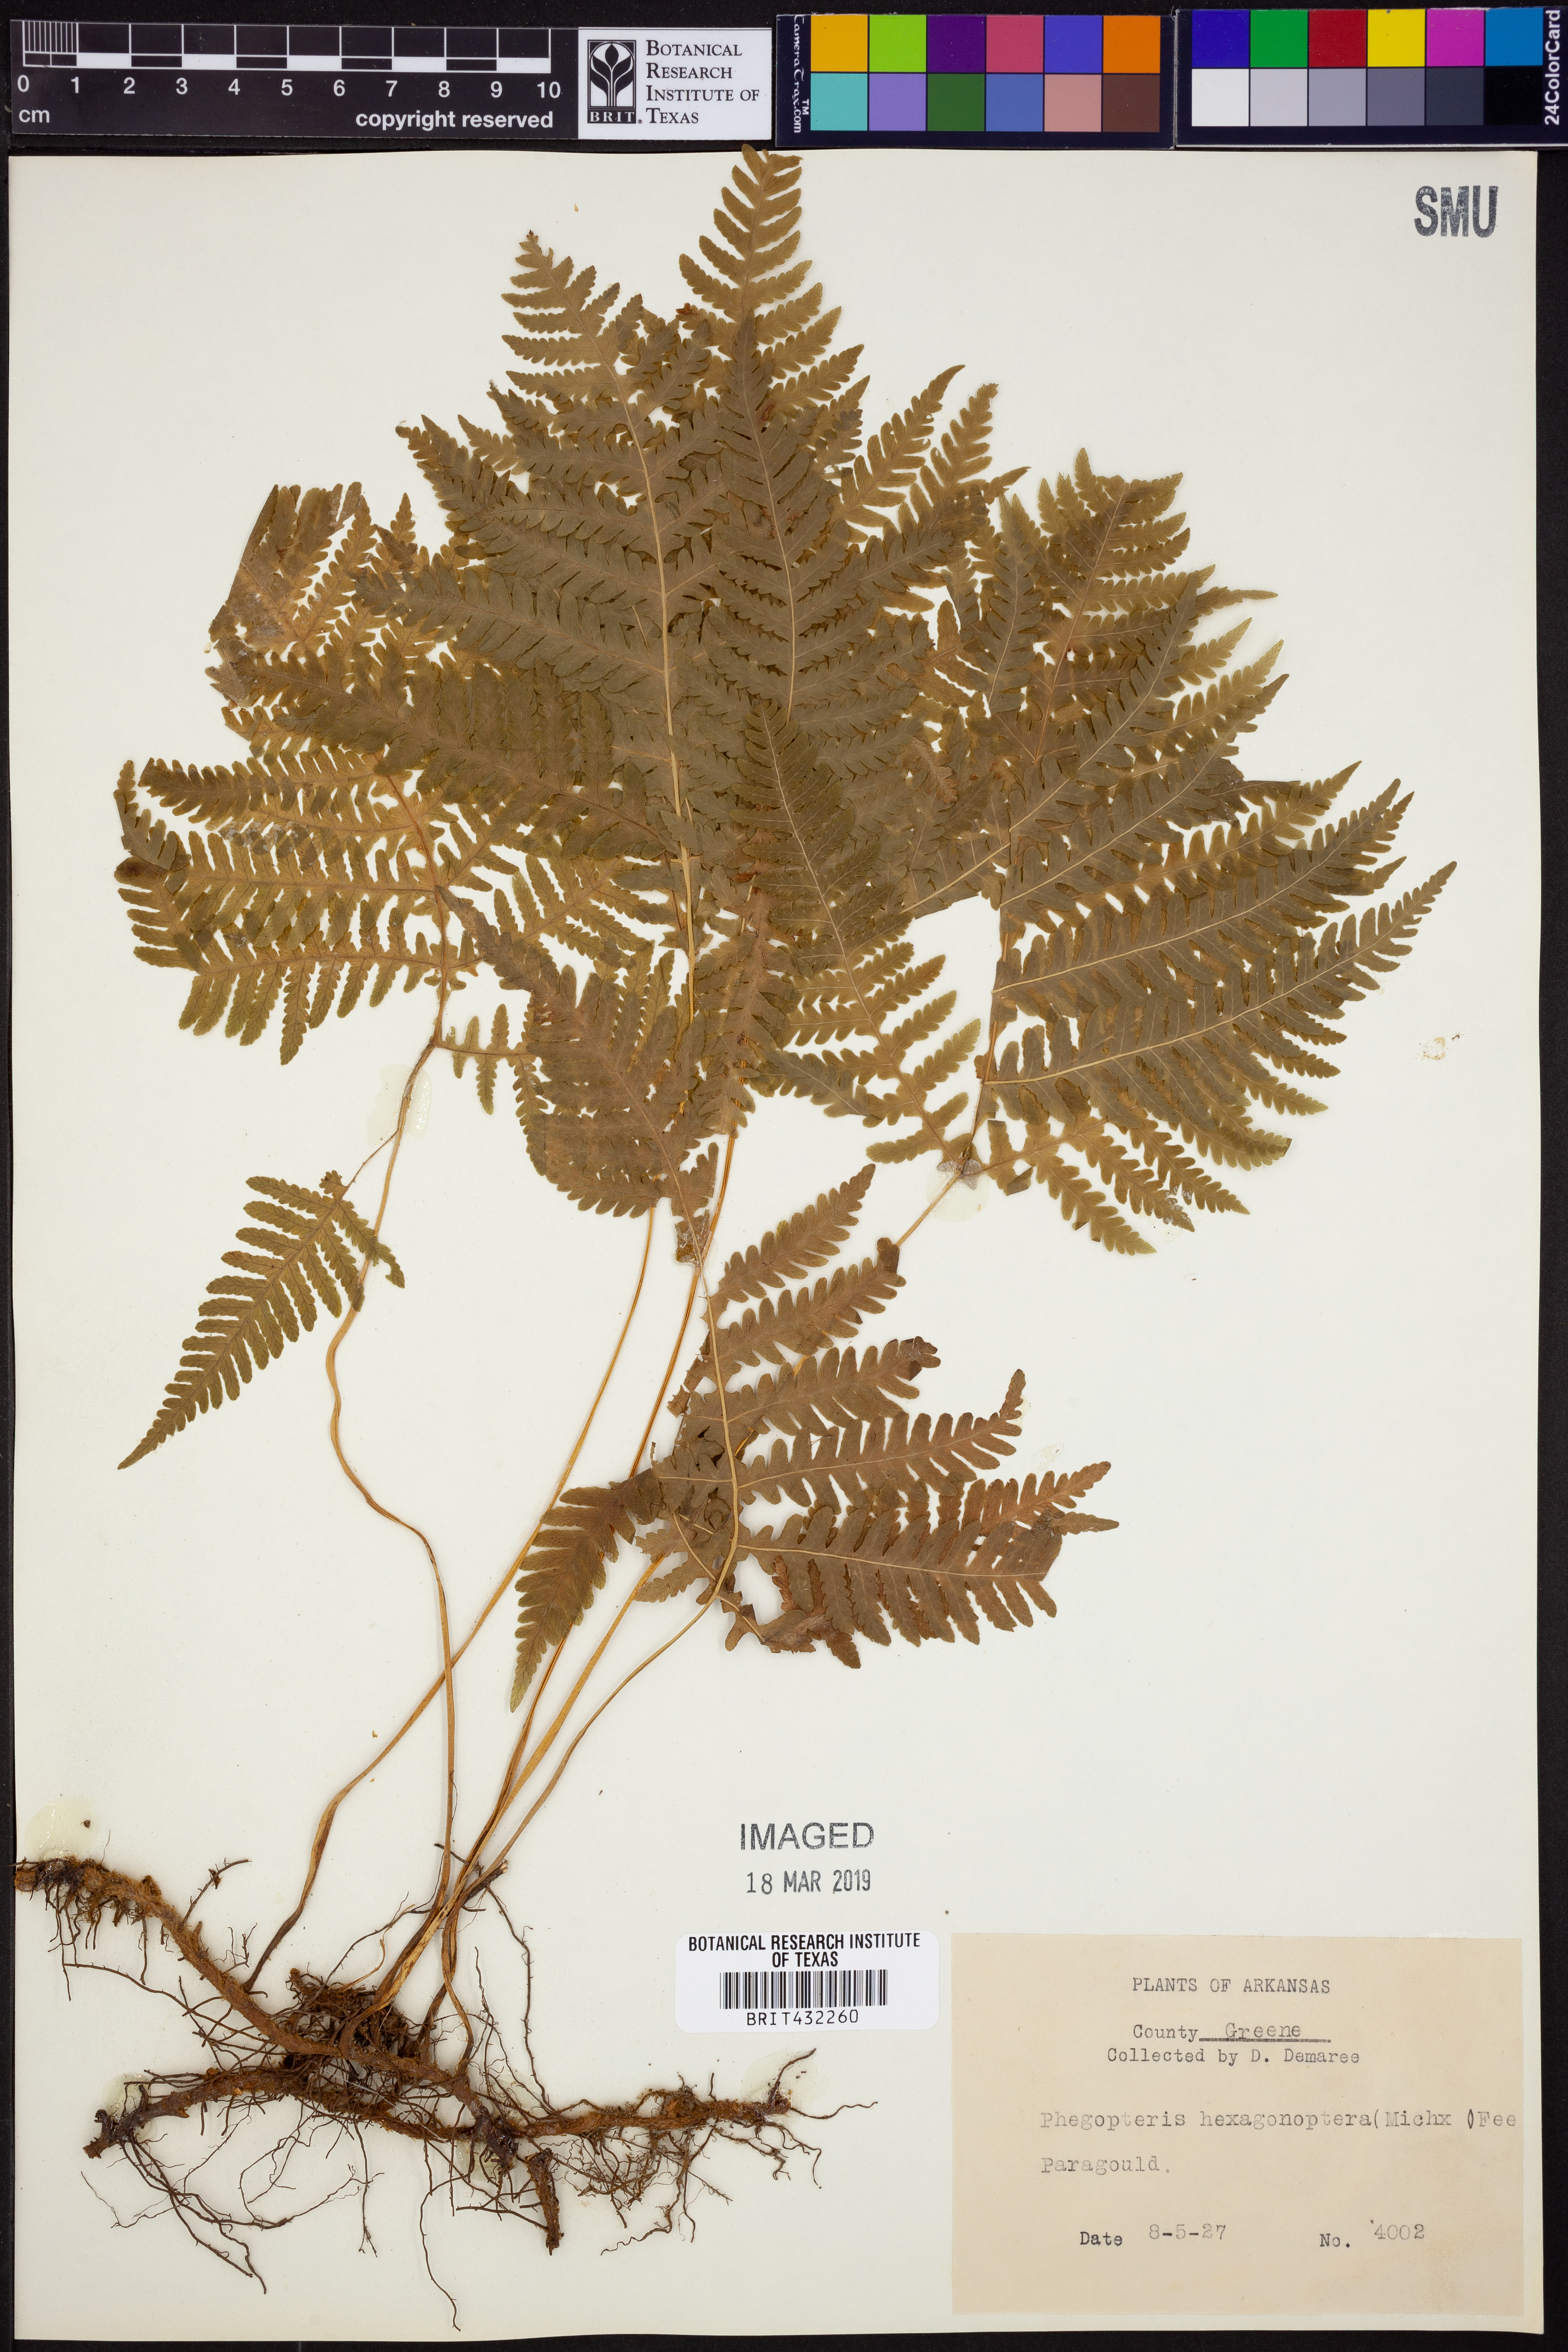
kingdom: Plantae
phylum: Tracheophyta
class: Polypodiopsida
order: Polypodiales
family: Thelypteridaceae
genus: Phegopteris
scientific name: Phegopteris hexagonoptera
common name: Broad beech fern
